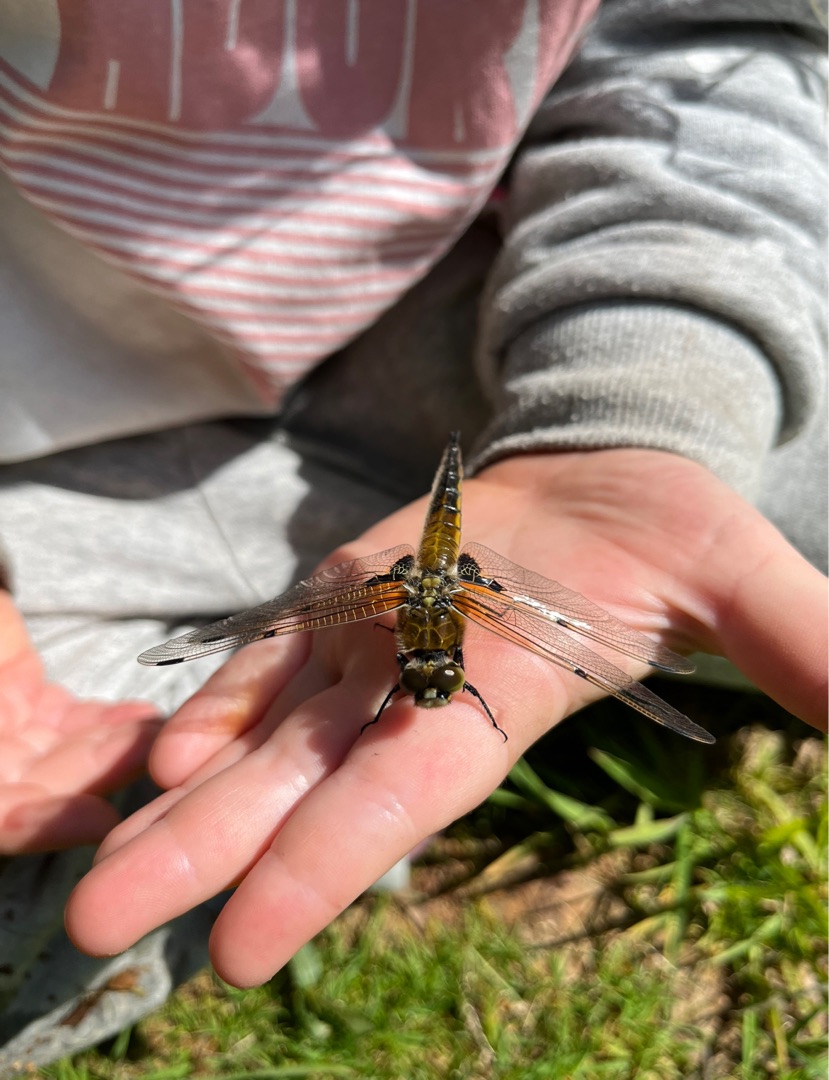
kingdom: Animalia
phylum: Arthropoda
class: Insecta
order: Odonata
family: Libellulidae
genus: Libellula
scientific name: Libellula quadrimaculata
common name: Fireplettet libel
